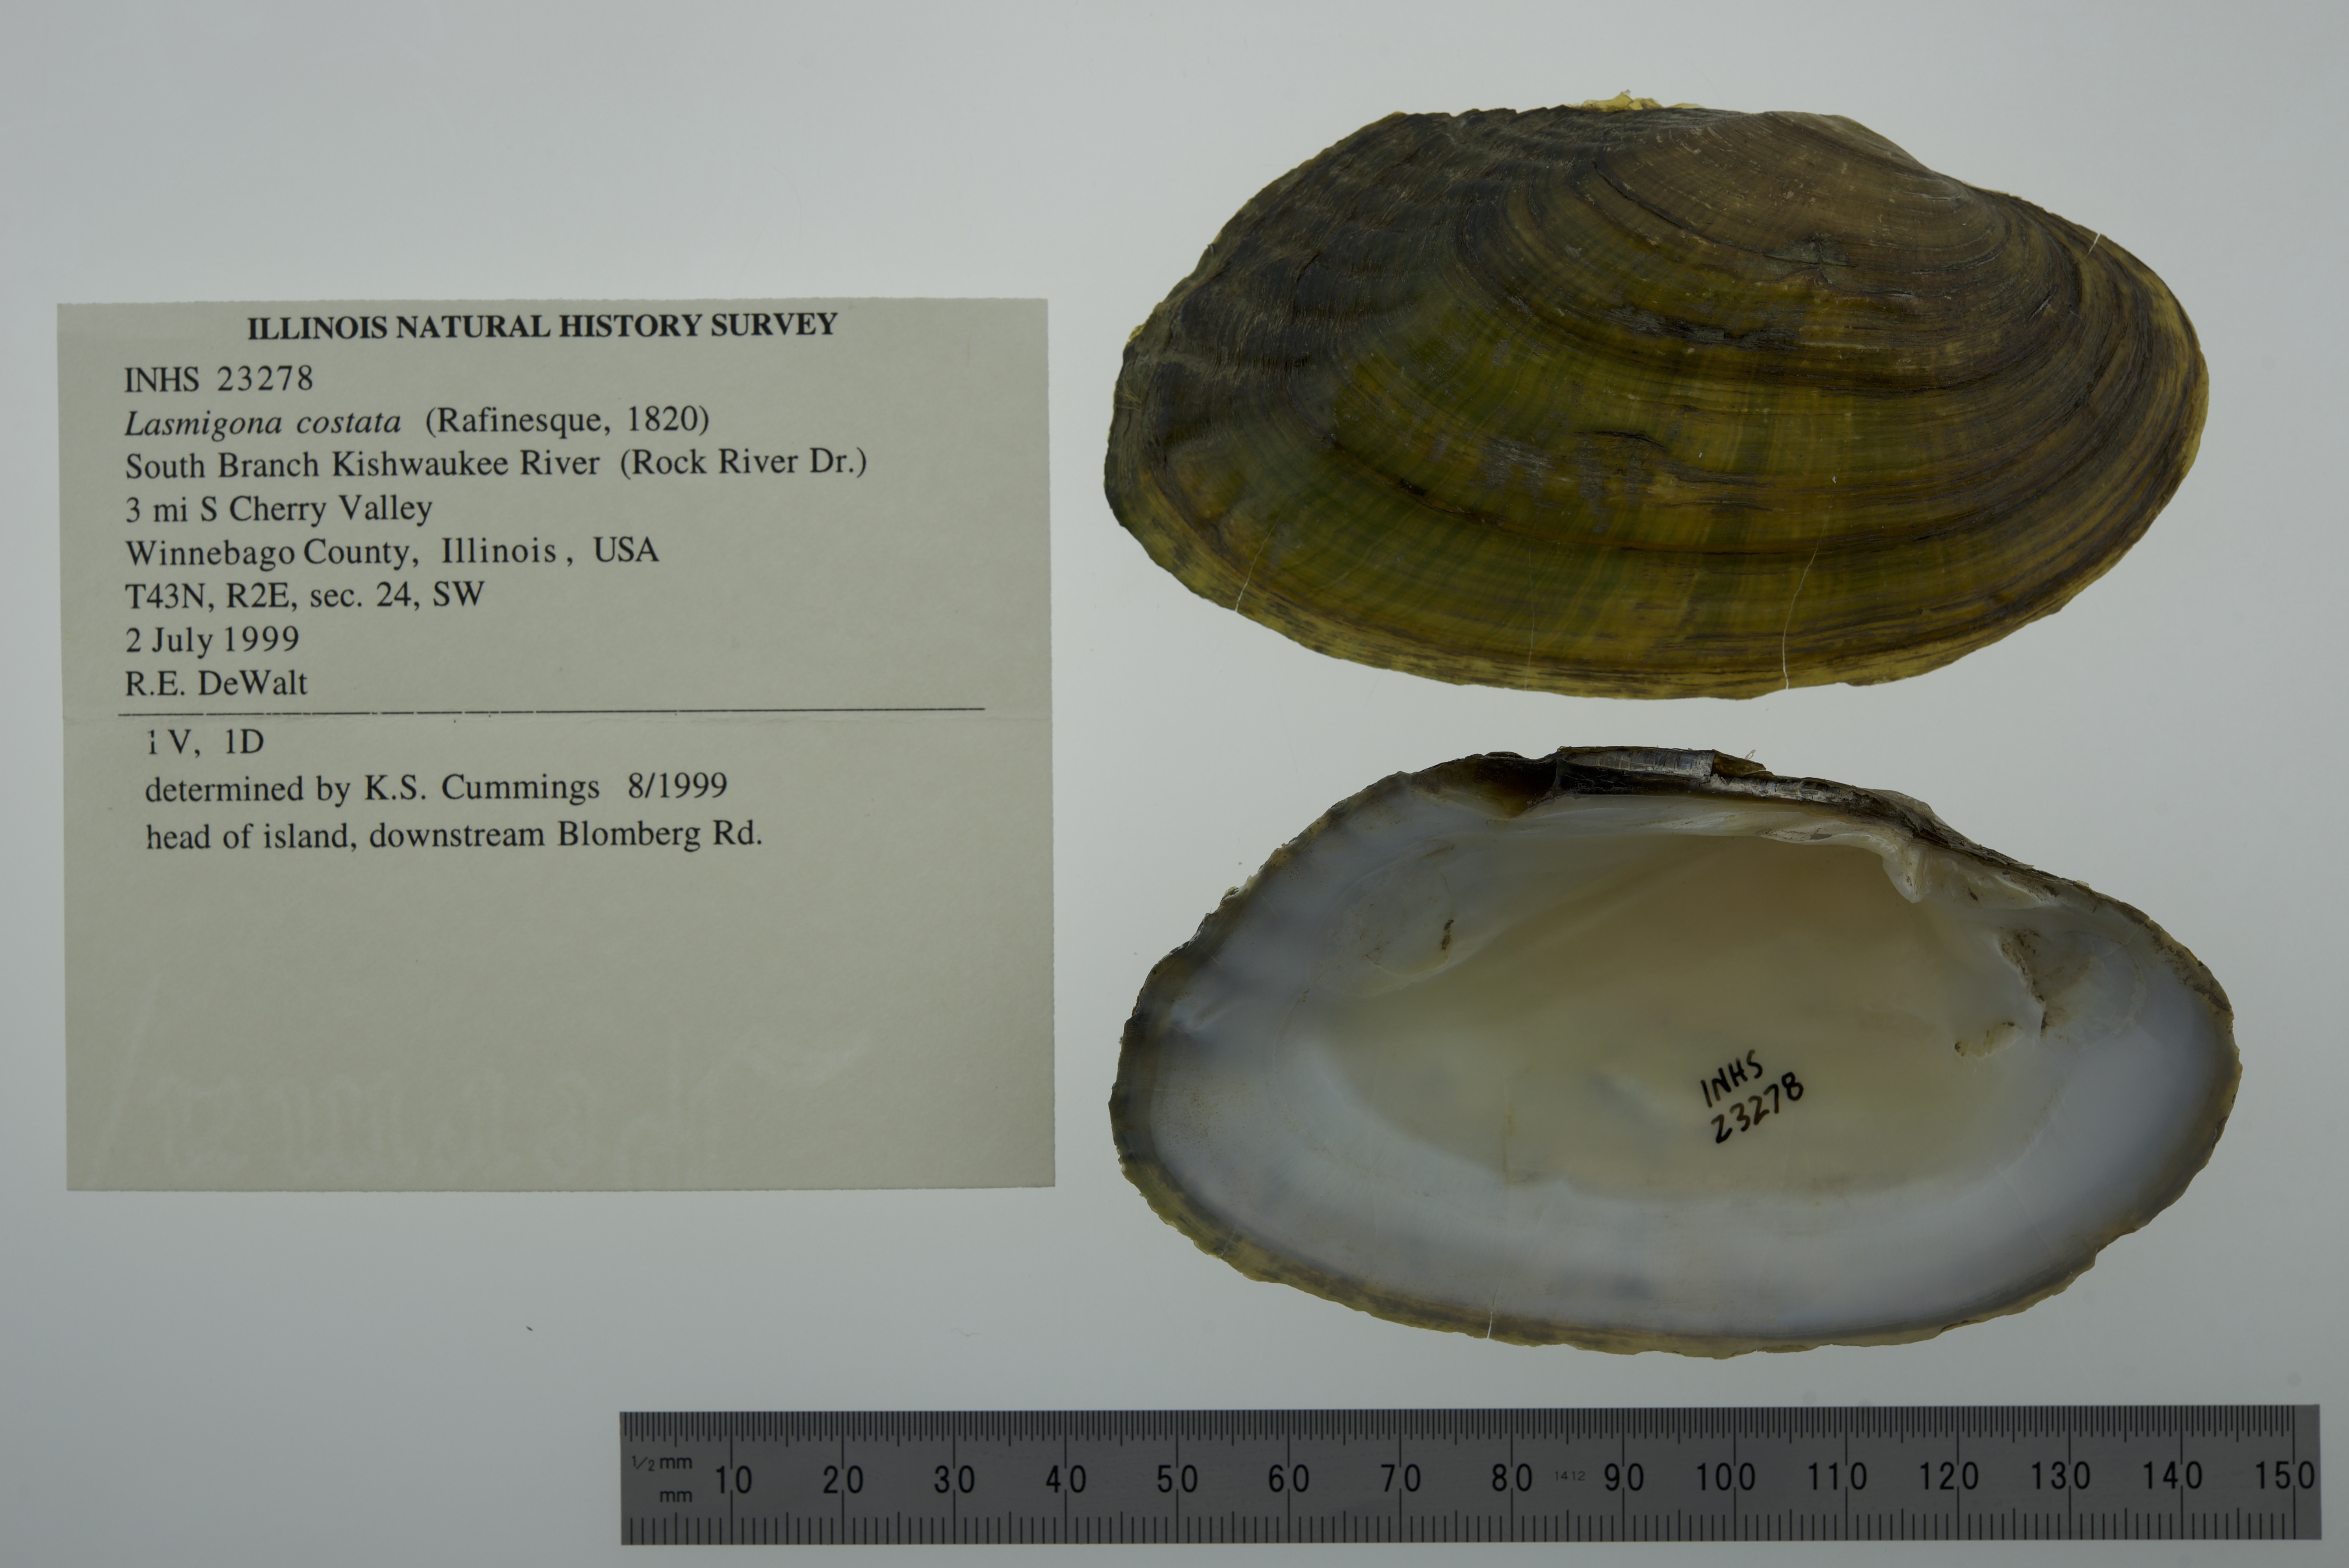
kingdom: Animalia
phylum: Mollusca
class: Bivalvia
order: Unionida
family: Unionidae
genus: Lasmigona
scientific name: Lasmigona costata
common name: Flutedshell
